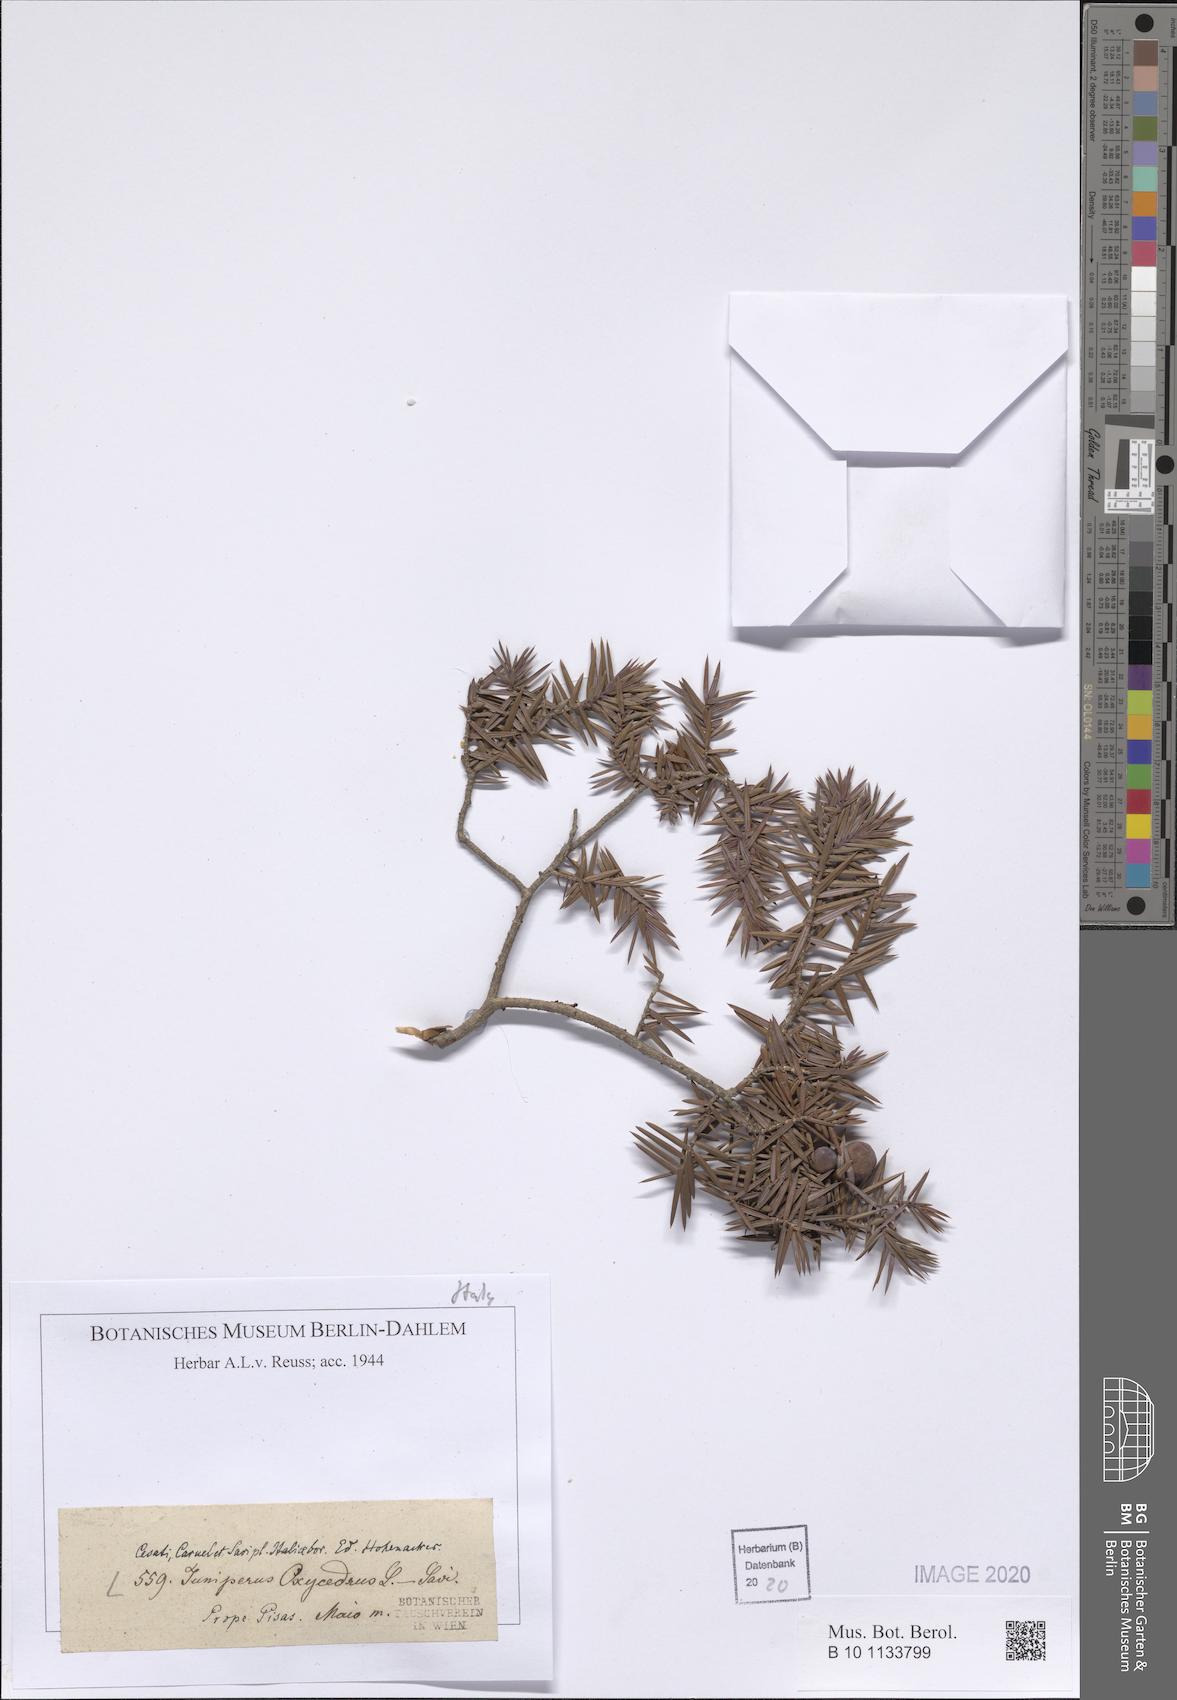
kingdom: Plantae
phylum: Tracheophyta
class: Pinopsida
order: Pinales
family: Cupressaceae
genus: Juniperus
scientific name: Juniperus oxycedrus
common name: Prickly juniper
